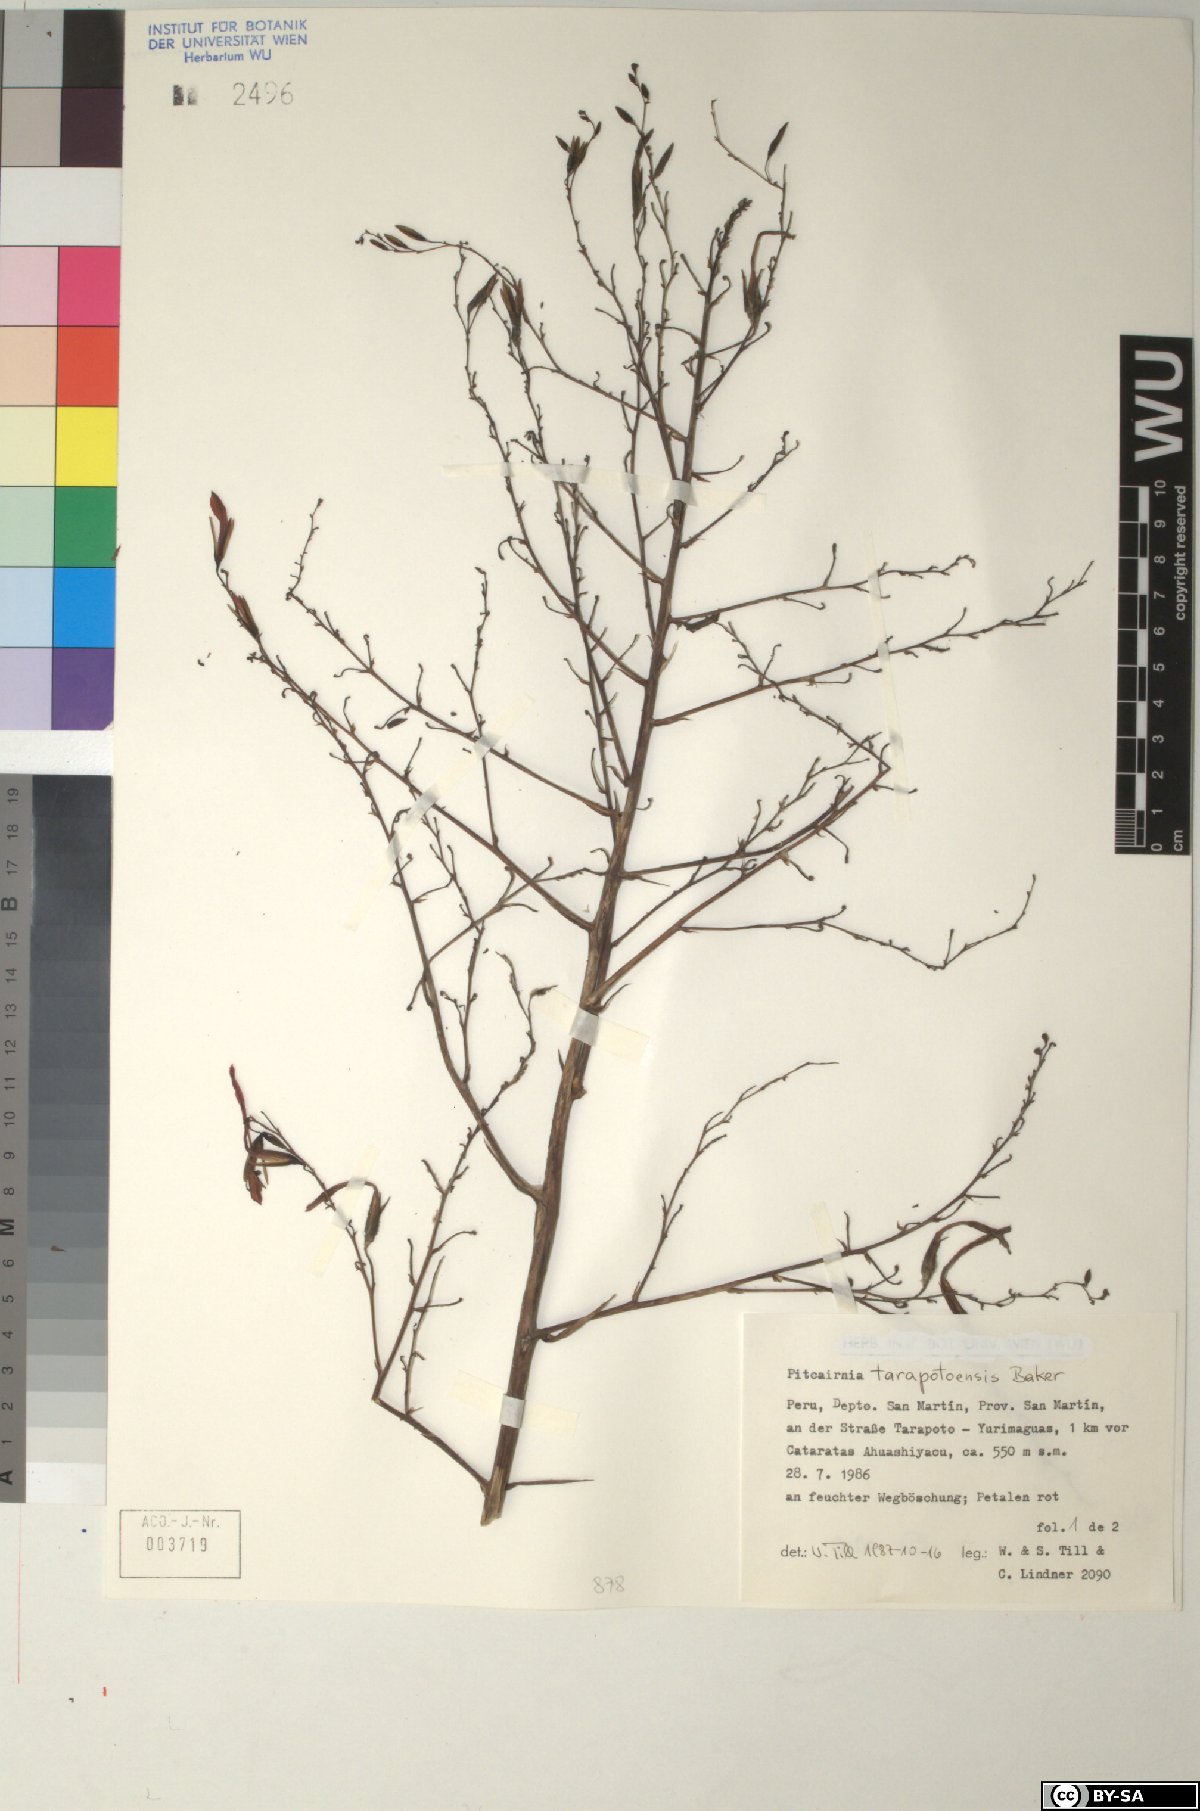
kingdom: Plantae
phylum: Tracheophyta
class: Liliopsida
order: Poales
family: Bromeliaceae
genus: Pitcairnia
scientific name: Pitcairnia tarapotensis
